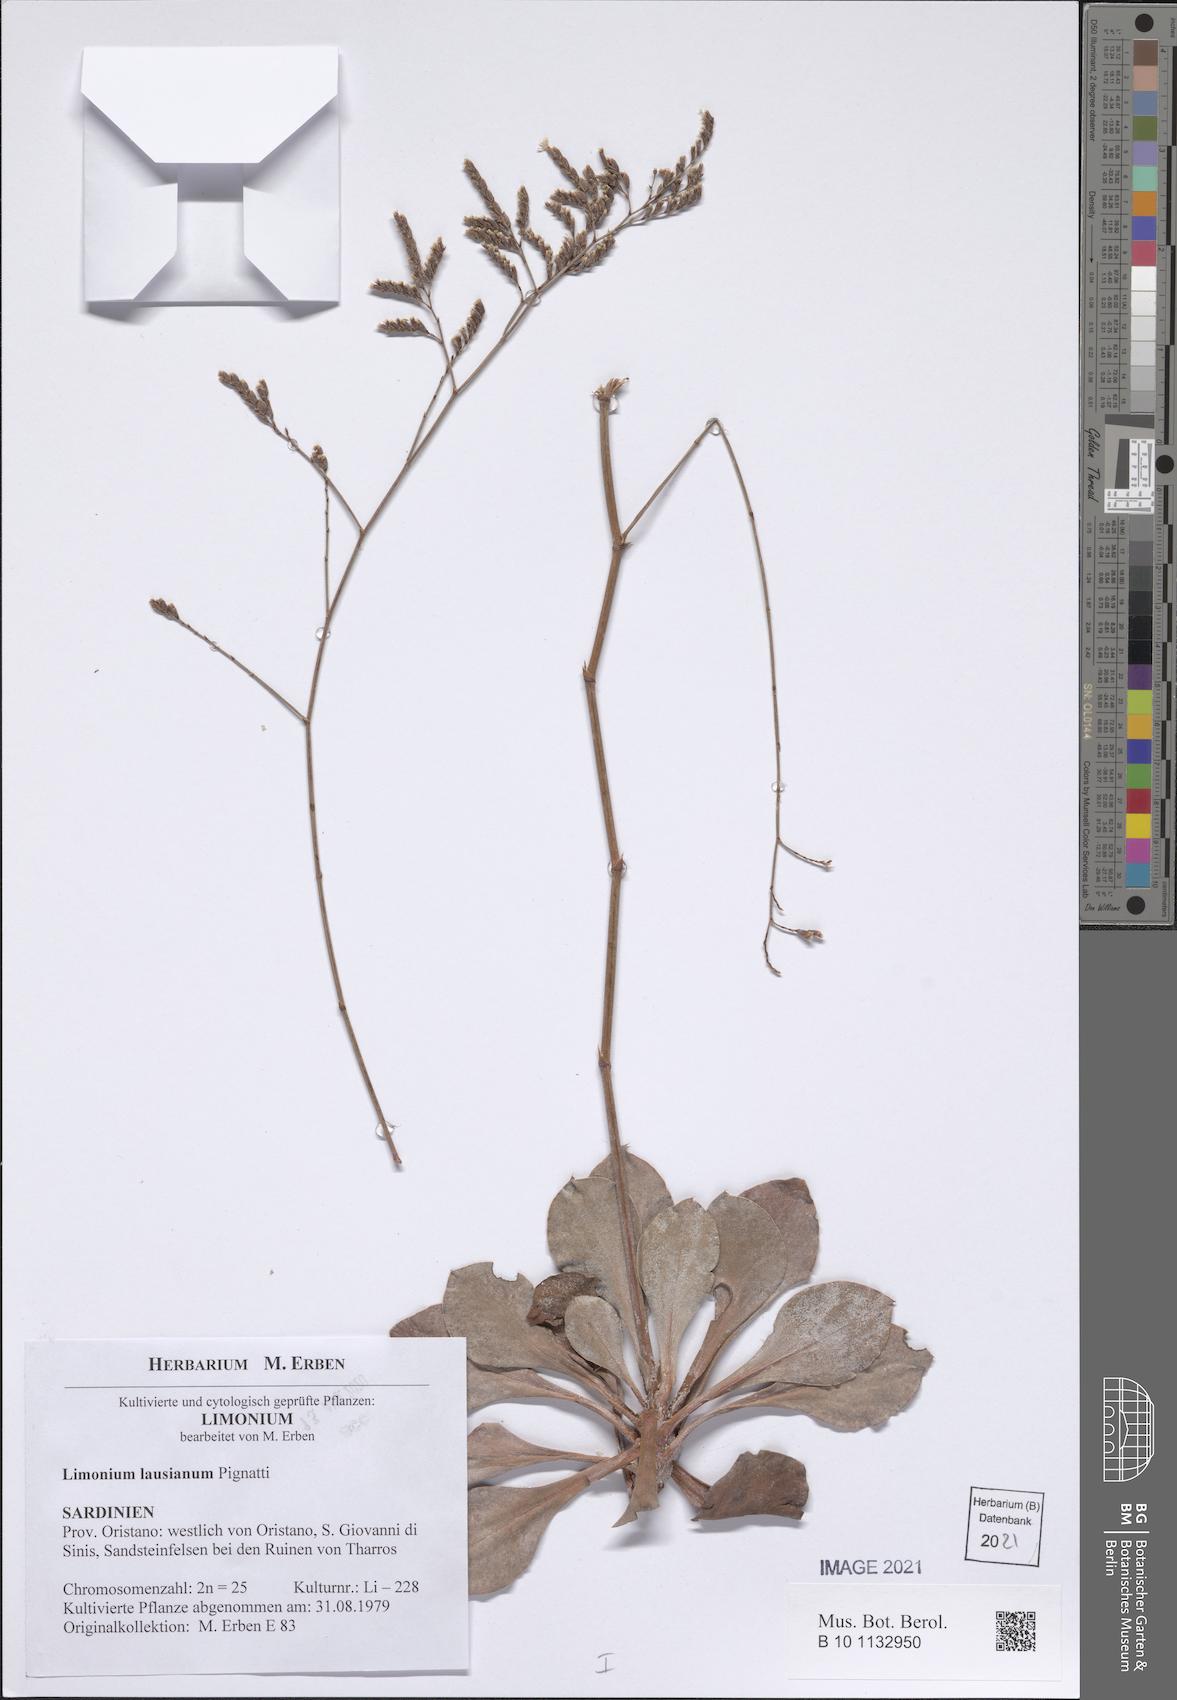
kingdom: Plantae
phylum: Tracheophyta
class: Magnoliopsida
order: Caryophyllales
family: Plumbaginaceae
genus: Limonium
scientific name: Limonium lausianum
